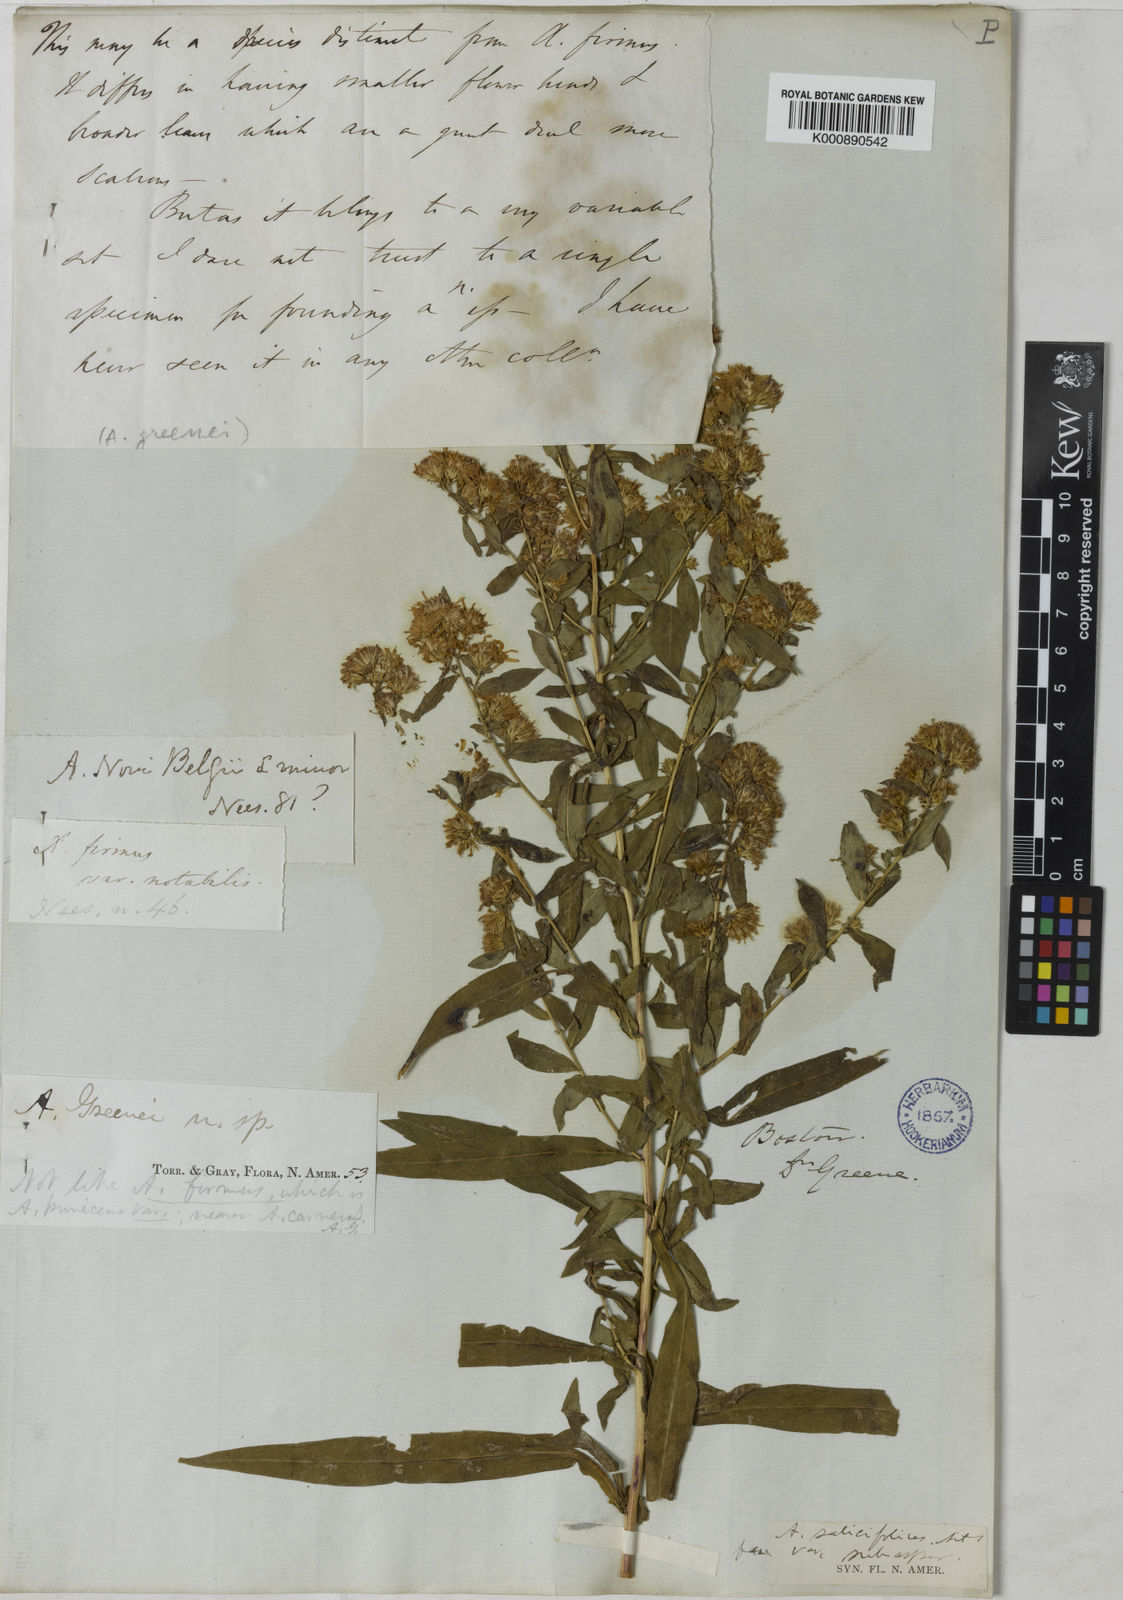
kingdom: Plantae
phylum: Tracheophyta
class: Magnoliopsida
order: Asterales
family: Asteraceae
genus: Symphyotrichum
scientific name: Symphyotrichum praealtum
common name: Willow aster
